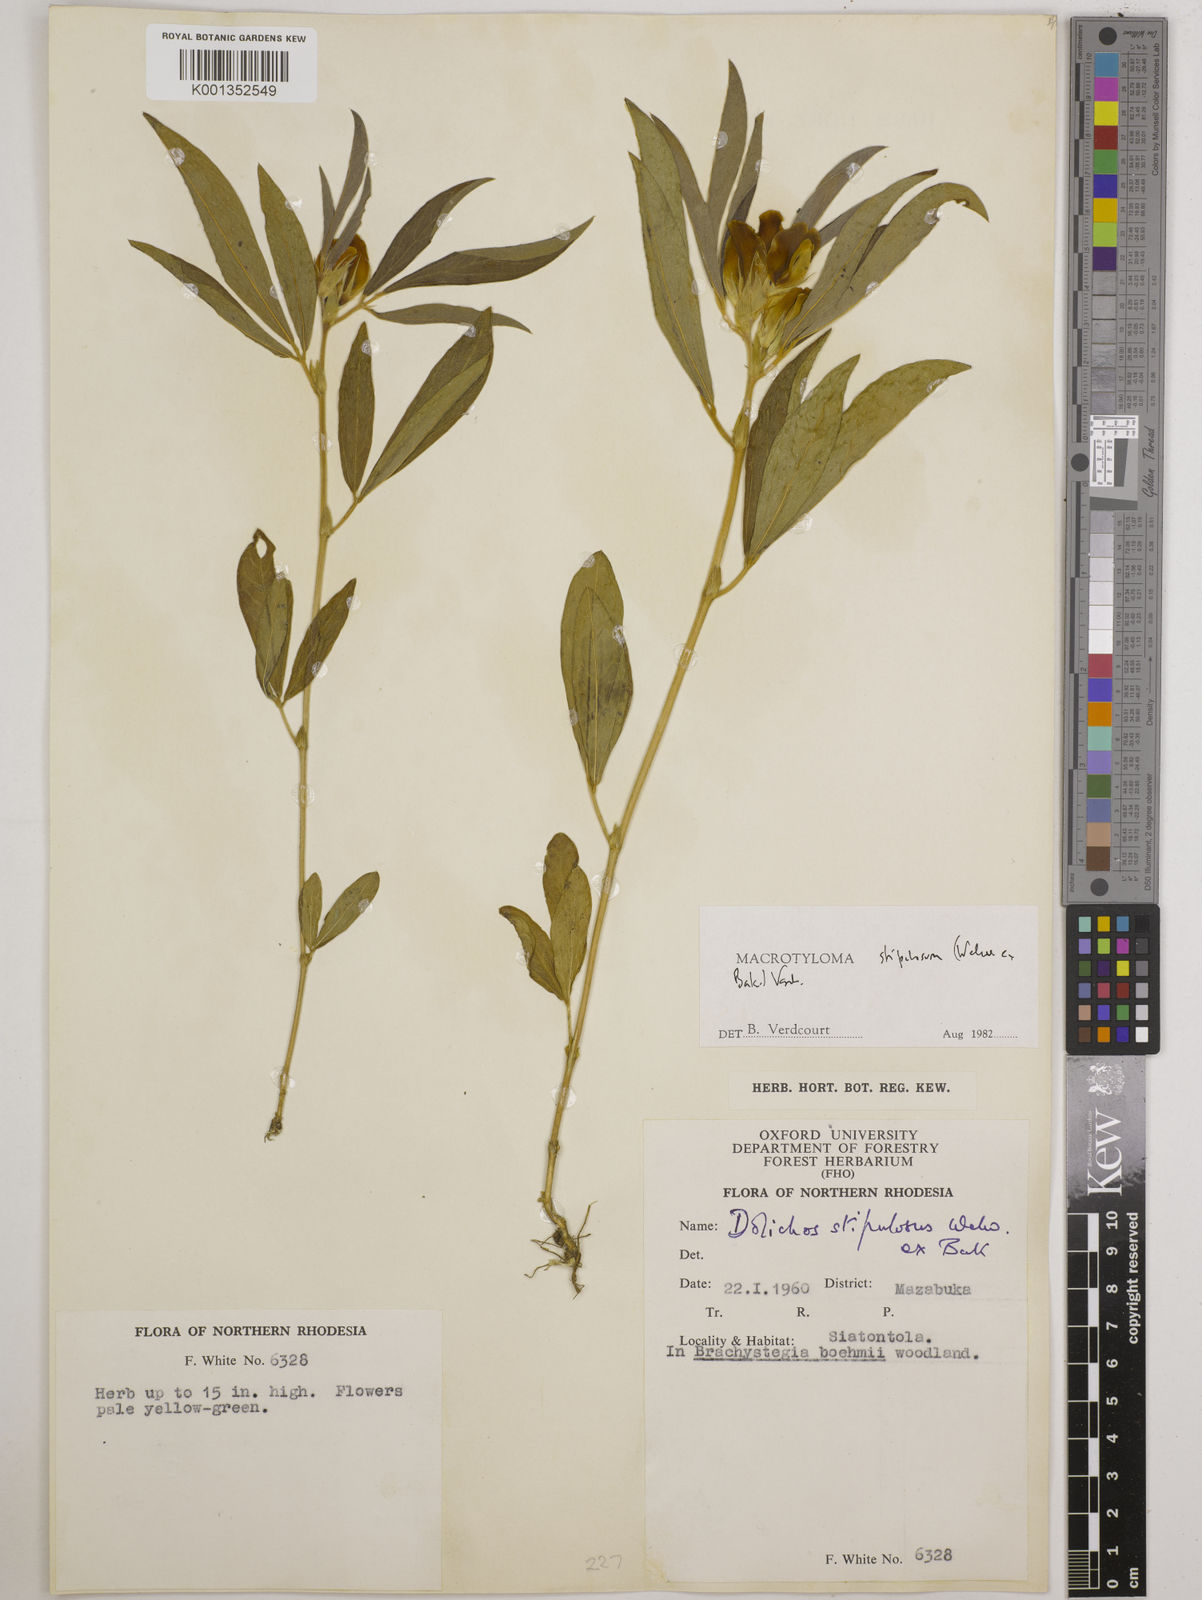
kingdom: Plantae
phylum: Tracheophyta
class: Magnoliopsida
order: Fabales
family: Fabaceae
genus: Macrotyloma
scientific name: Macrotyloma stipulosum
